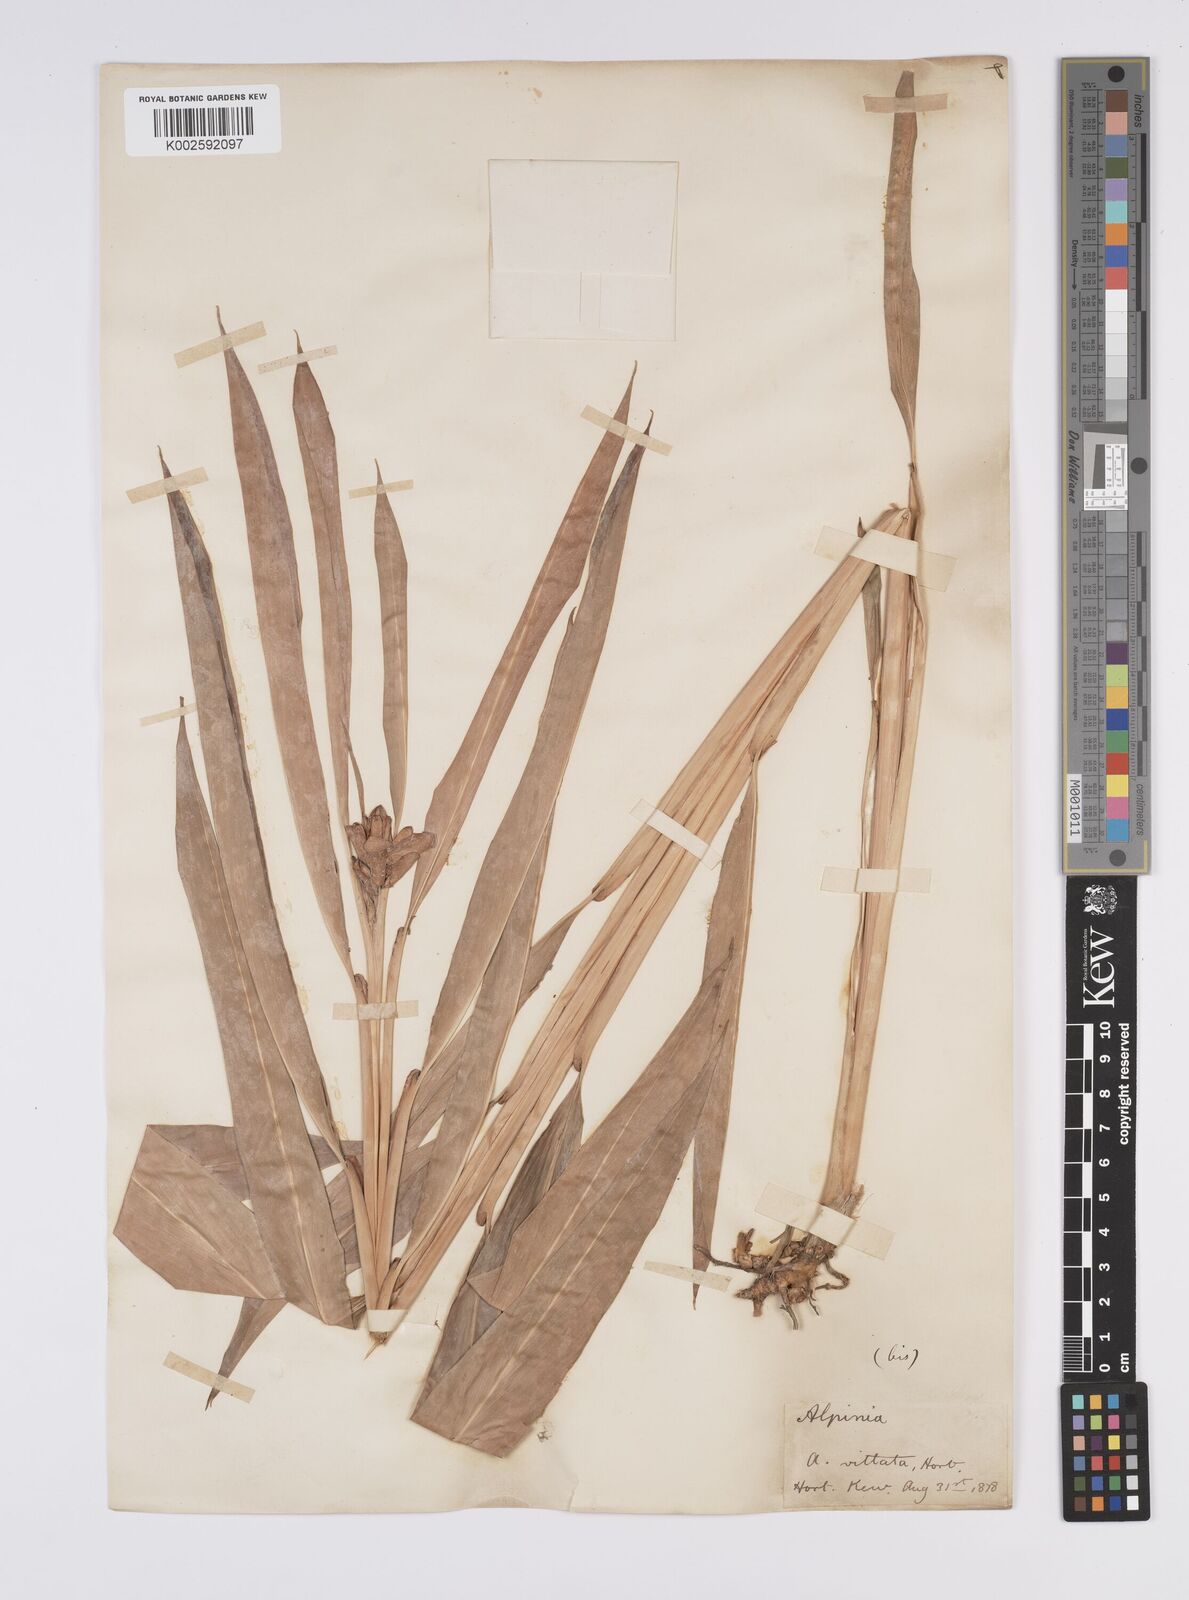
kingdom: Plantae
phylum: Tracheophyta
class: Liliopsida
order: Zingiberales
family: Zingiberaceae
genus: Alpinia
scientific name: Alpinia vittata
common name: Variegate-ginger
